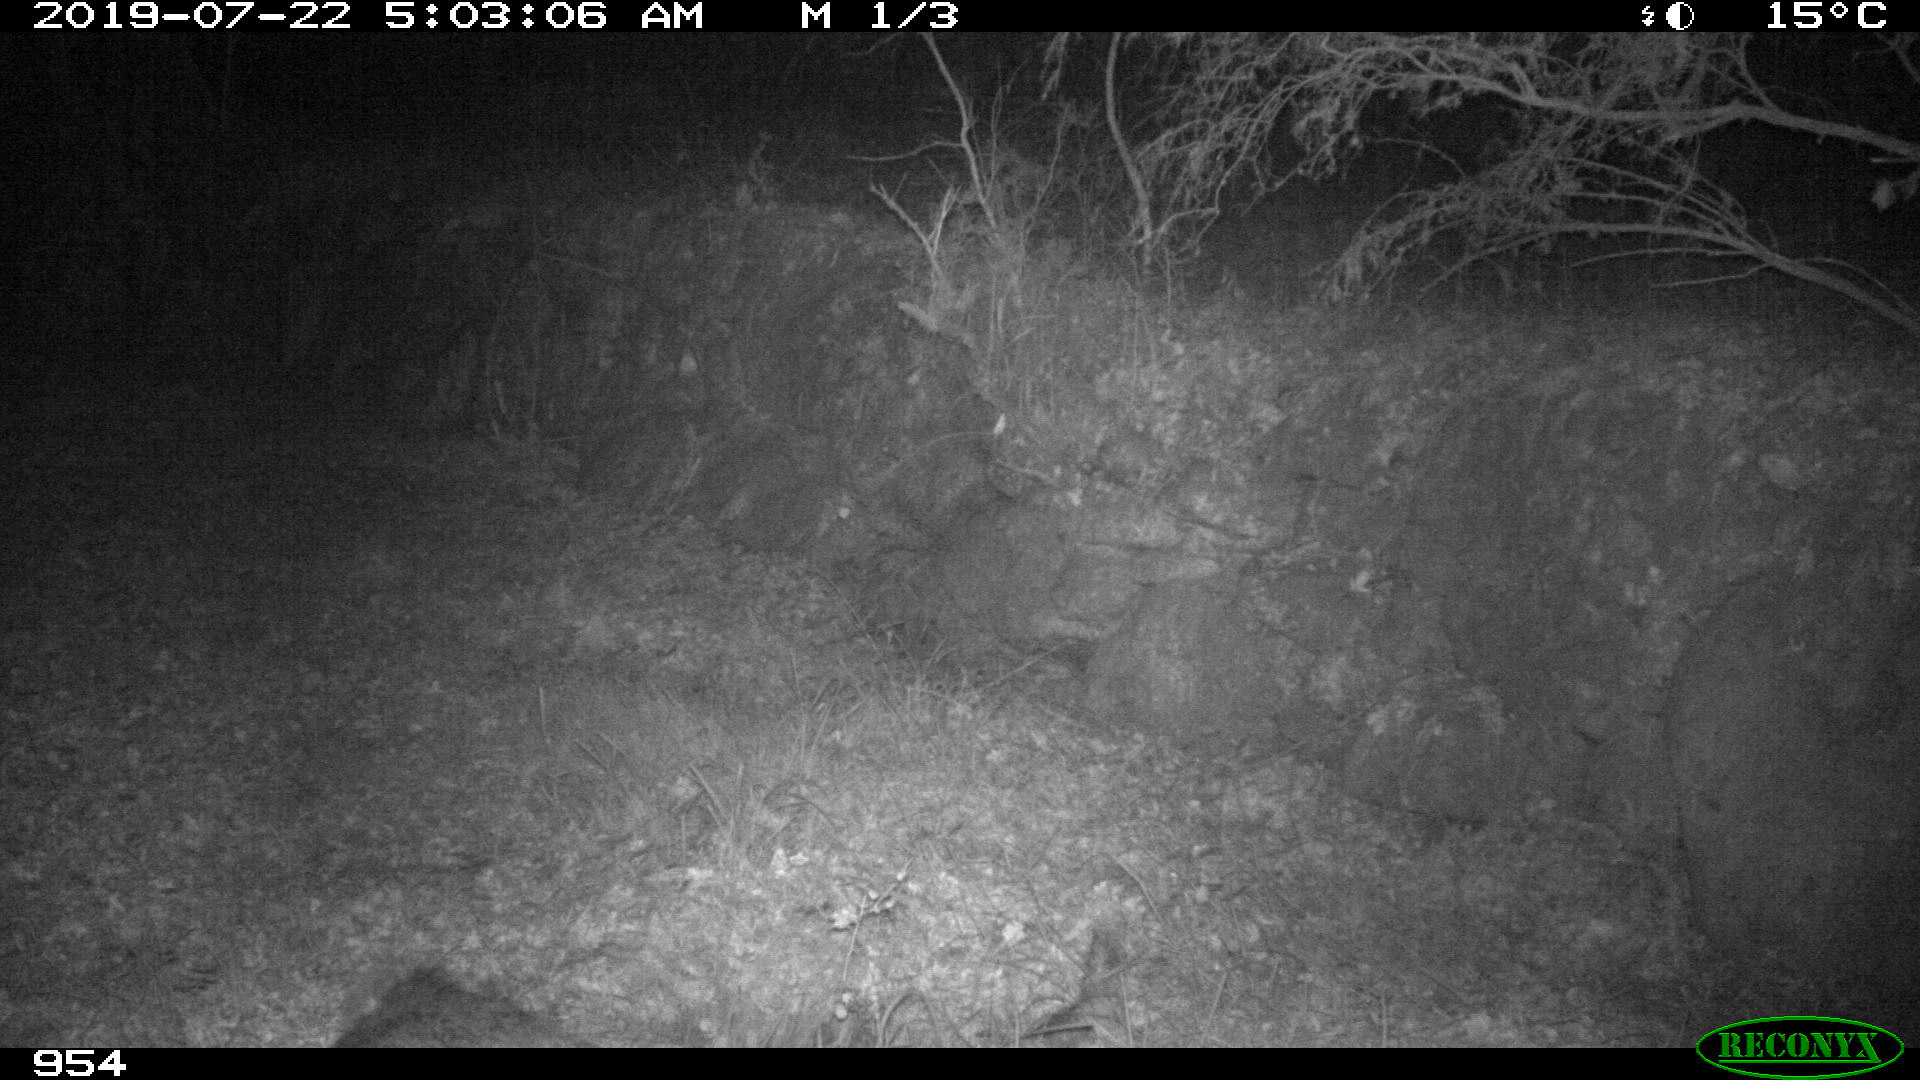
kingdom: Animalia
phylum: Chordata
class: Mammalia
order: Artiodactyla
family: Suidae
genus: Sus
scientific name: Sus scrofa
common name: Wild boar
